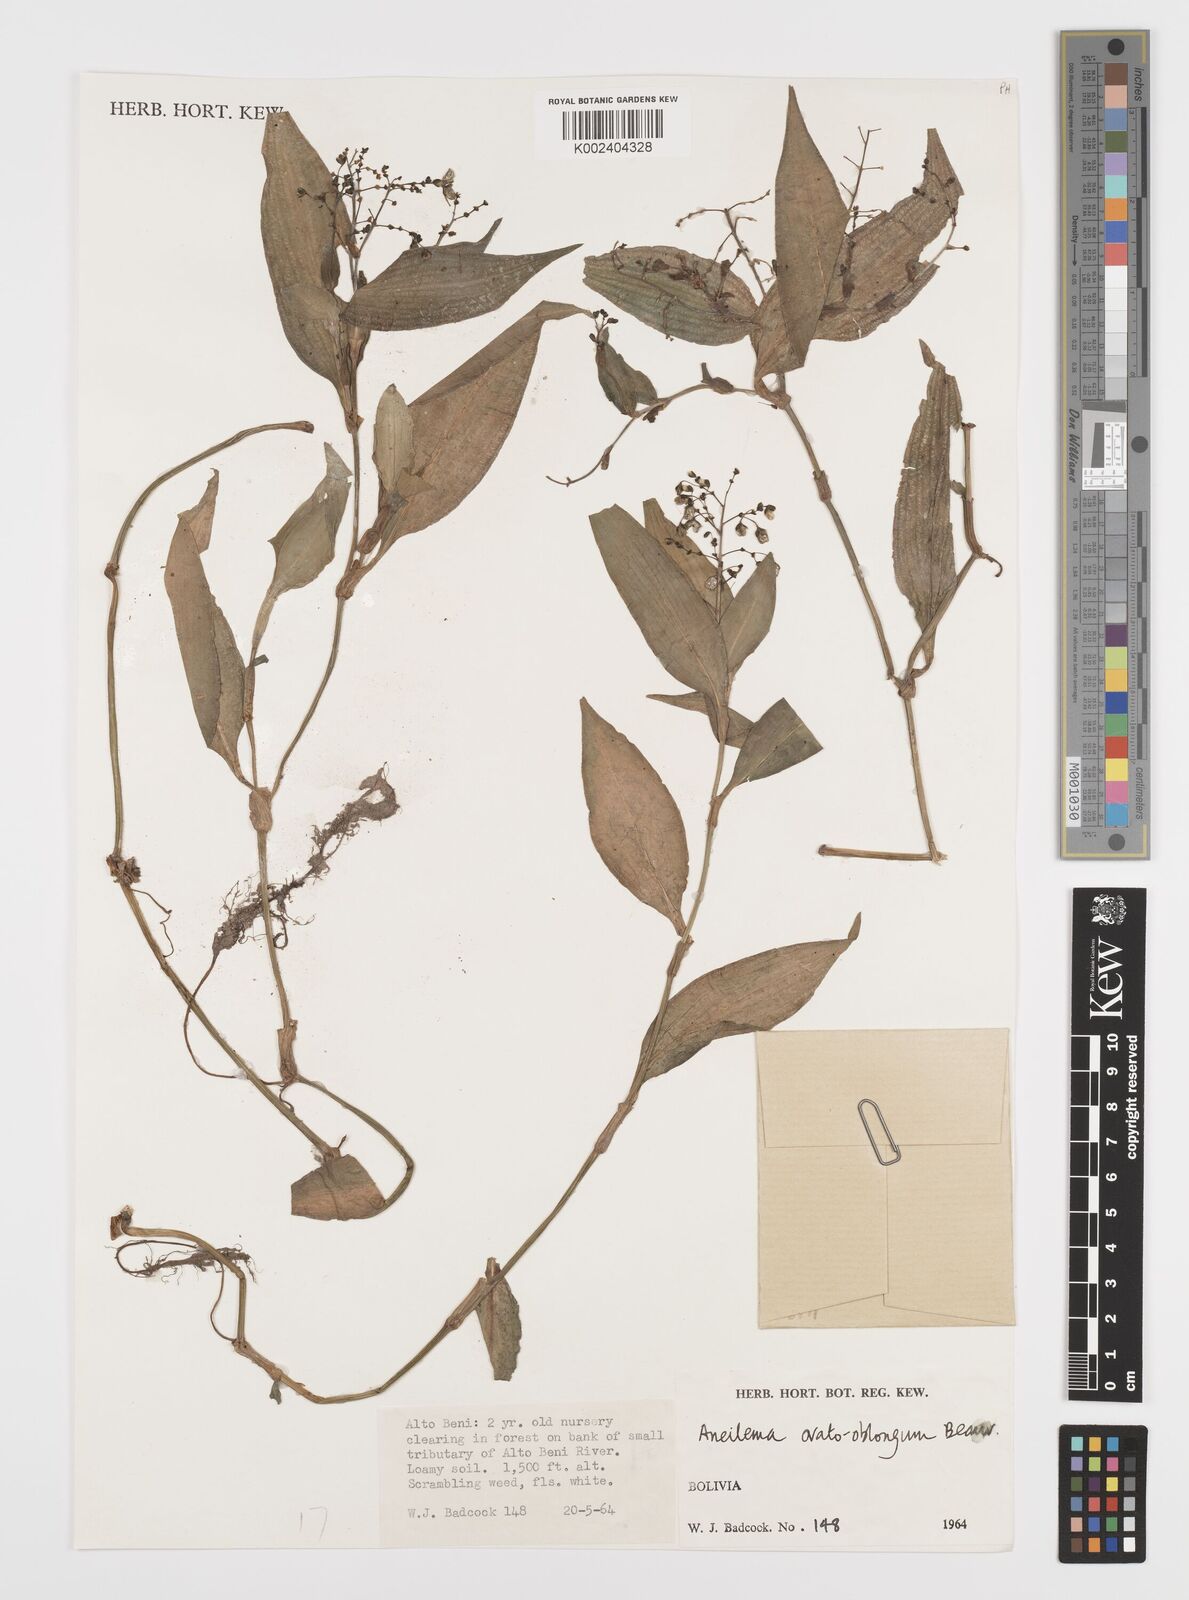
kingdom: Plantae
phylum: Tracheophyta
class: Liliopsida
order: Commelinales
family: Commelinaceae
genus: Aneilema
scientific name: Aneilema umbrosum
